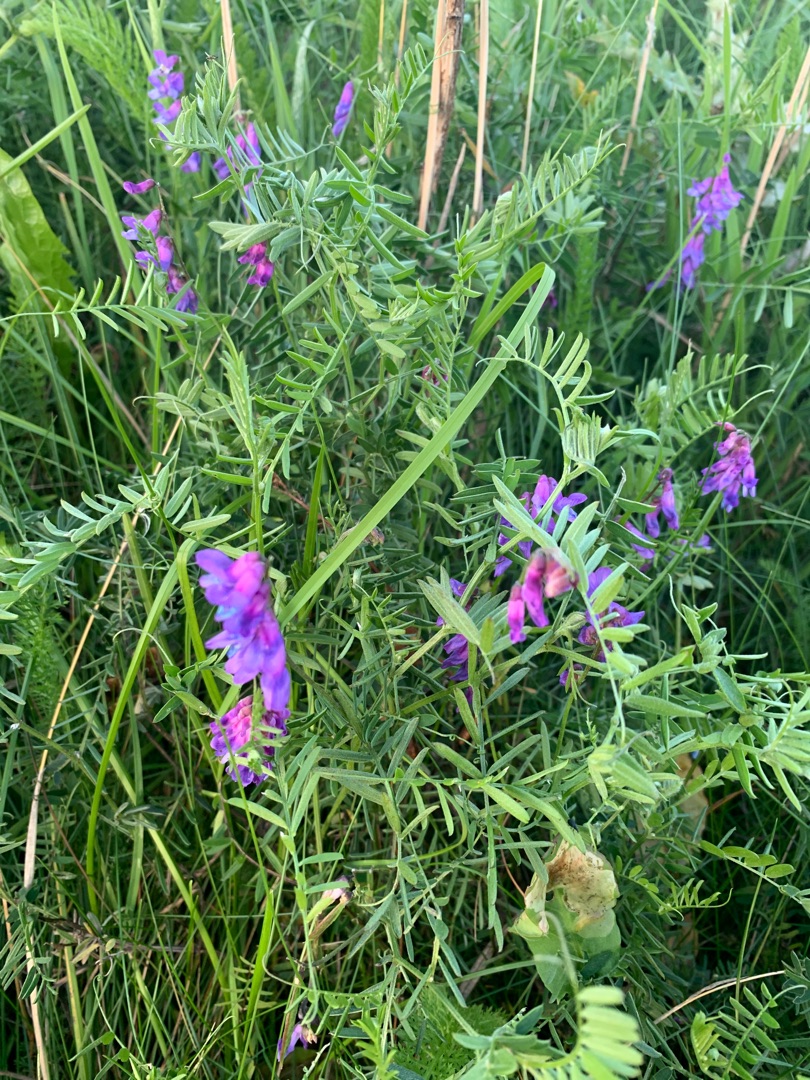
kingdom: Plantae
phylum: Tracheophyta
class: Magnoliopsida
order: Fabales
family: Fabaceae
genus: Vicia
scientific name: Vicia cracca
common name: Muse-vikke
